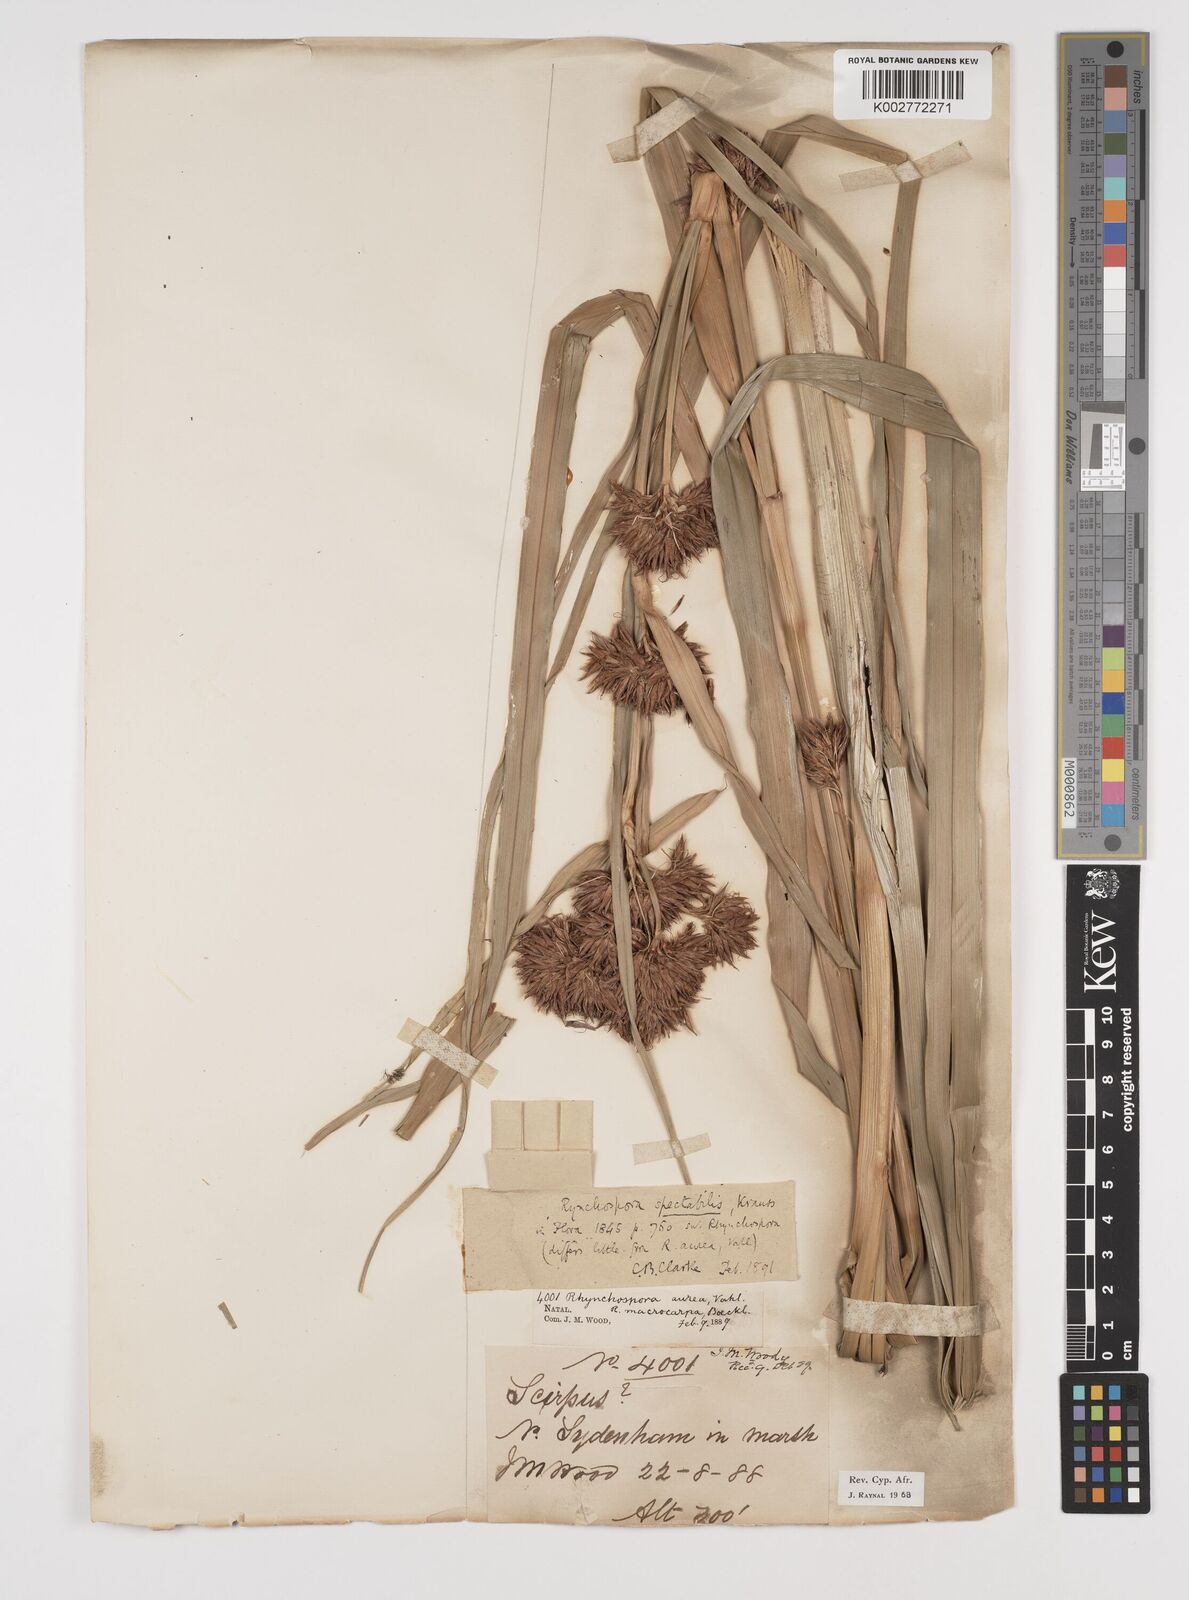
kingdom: Plantae
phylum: Tracheophyta
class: Liliopsida
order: Poales
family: Cyperaceae
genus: Rhynchospora
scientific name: Rhynchospora corymbosa
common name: Golden beak sedge
